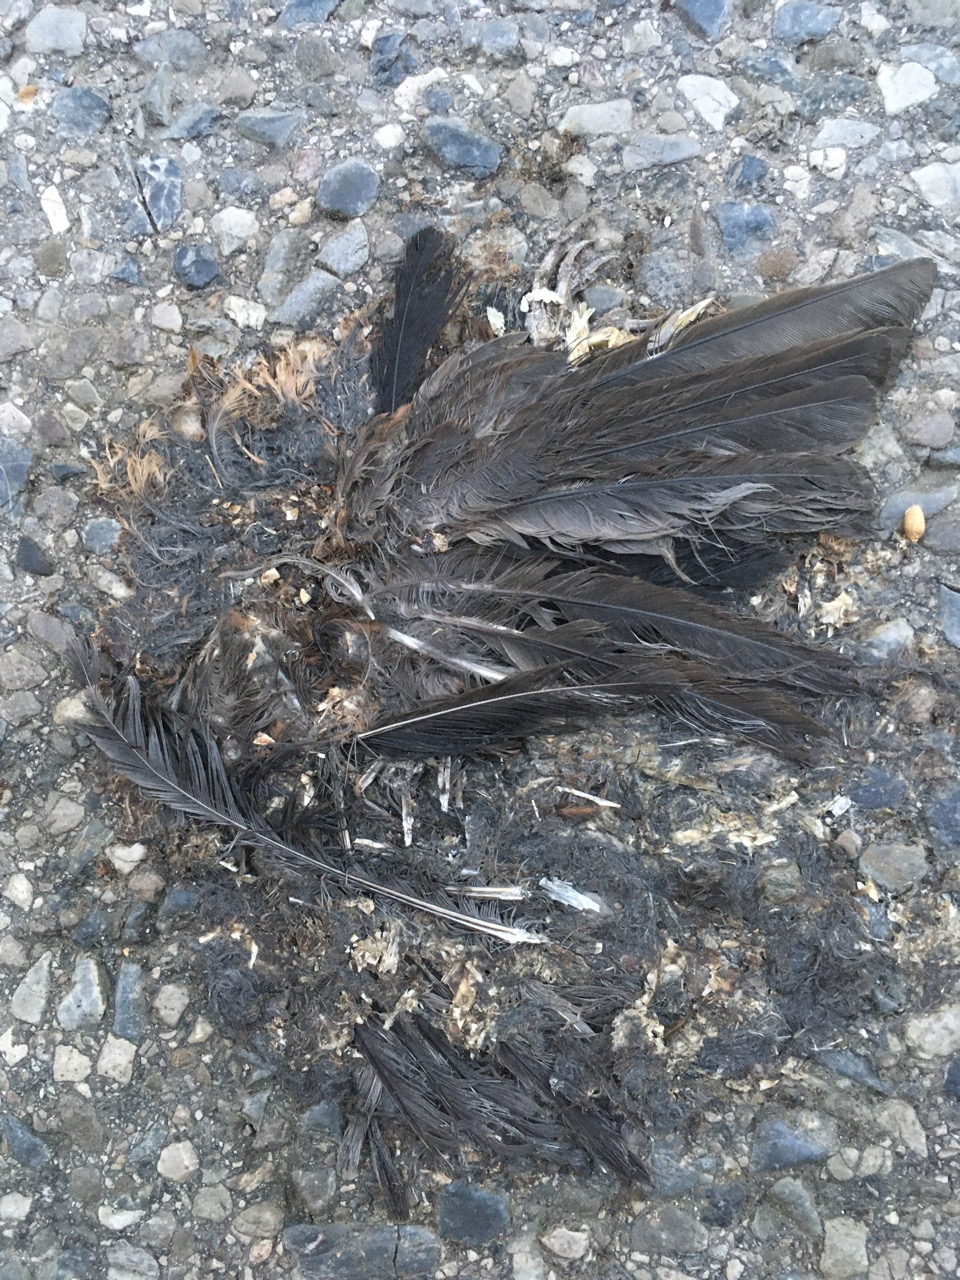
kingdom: Animalia
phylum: Chordata
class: Aves
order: Passeriformes
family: Turdidae
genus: Turdus
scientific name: Turdus merula
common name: Common blackbird
